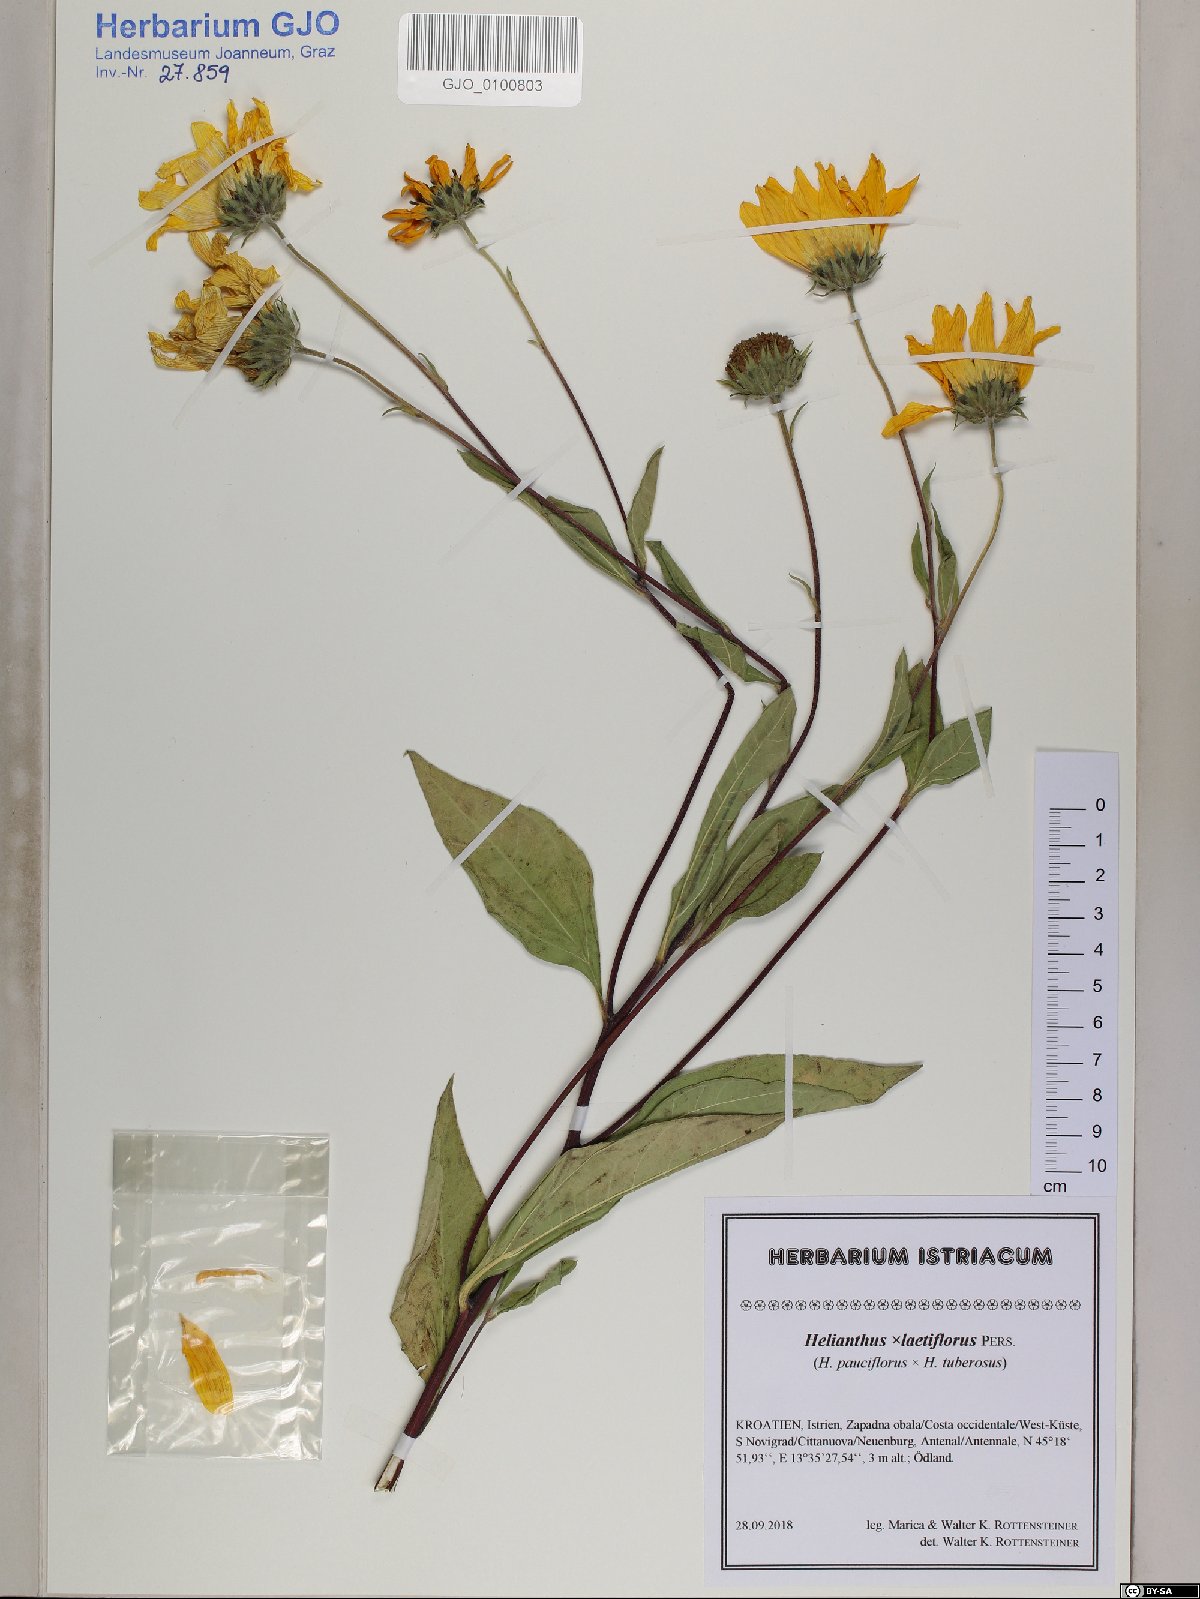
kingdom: Plantae
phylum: Tracheophyta
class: Magnoliopsida
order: Asterales
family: Asteraceae
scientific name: Asteraceae
